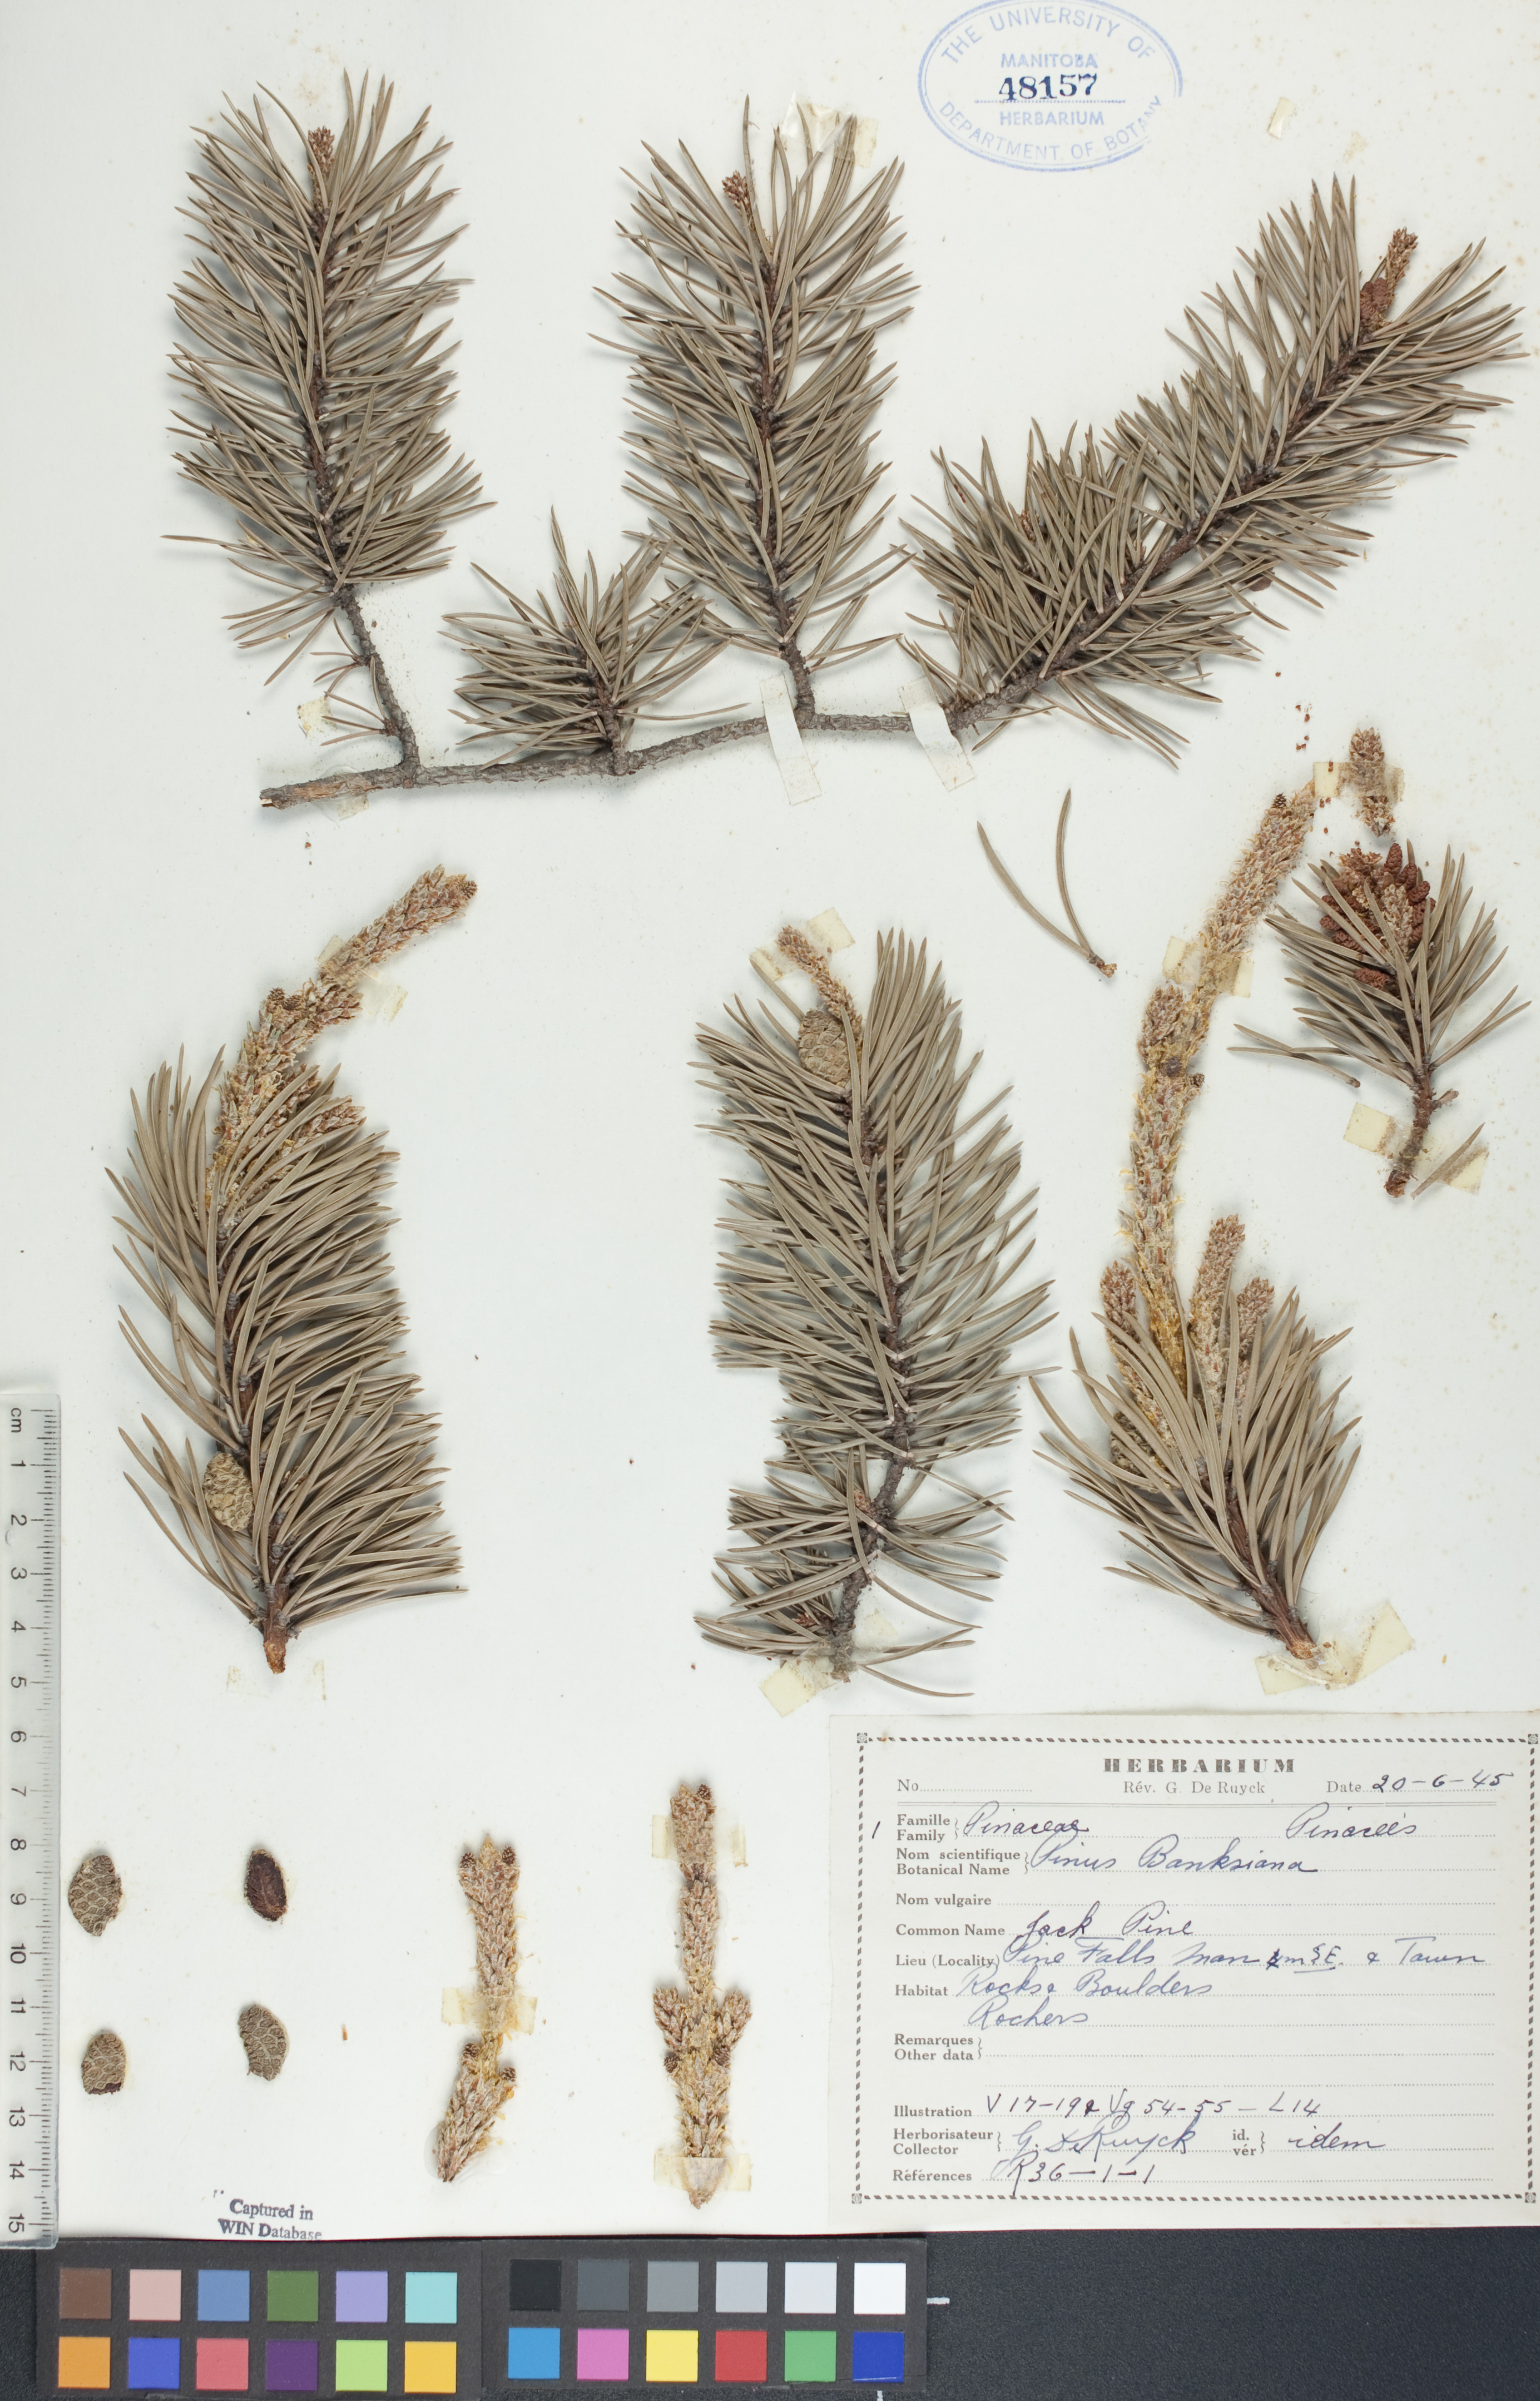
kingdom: Plantae
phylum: Tracheophyta
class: Pinopsida
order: Pinales
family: Pinaceae
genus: Pinus
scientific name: Pinus banksiana
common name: Jack pine
